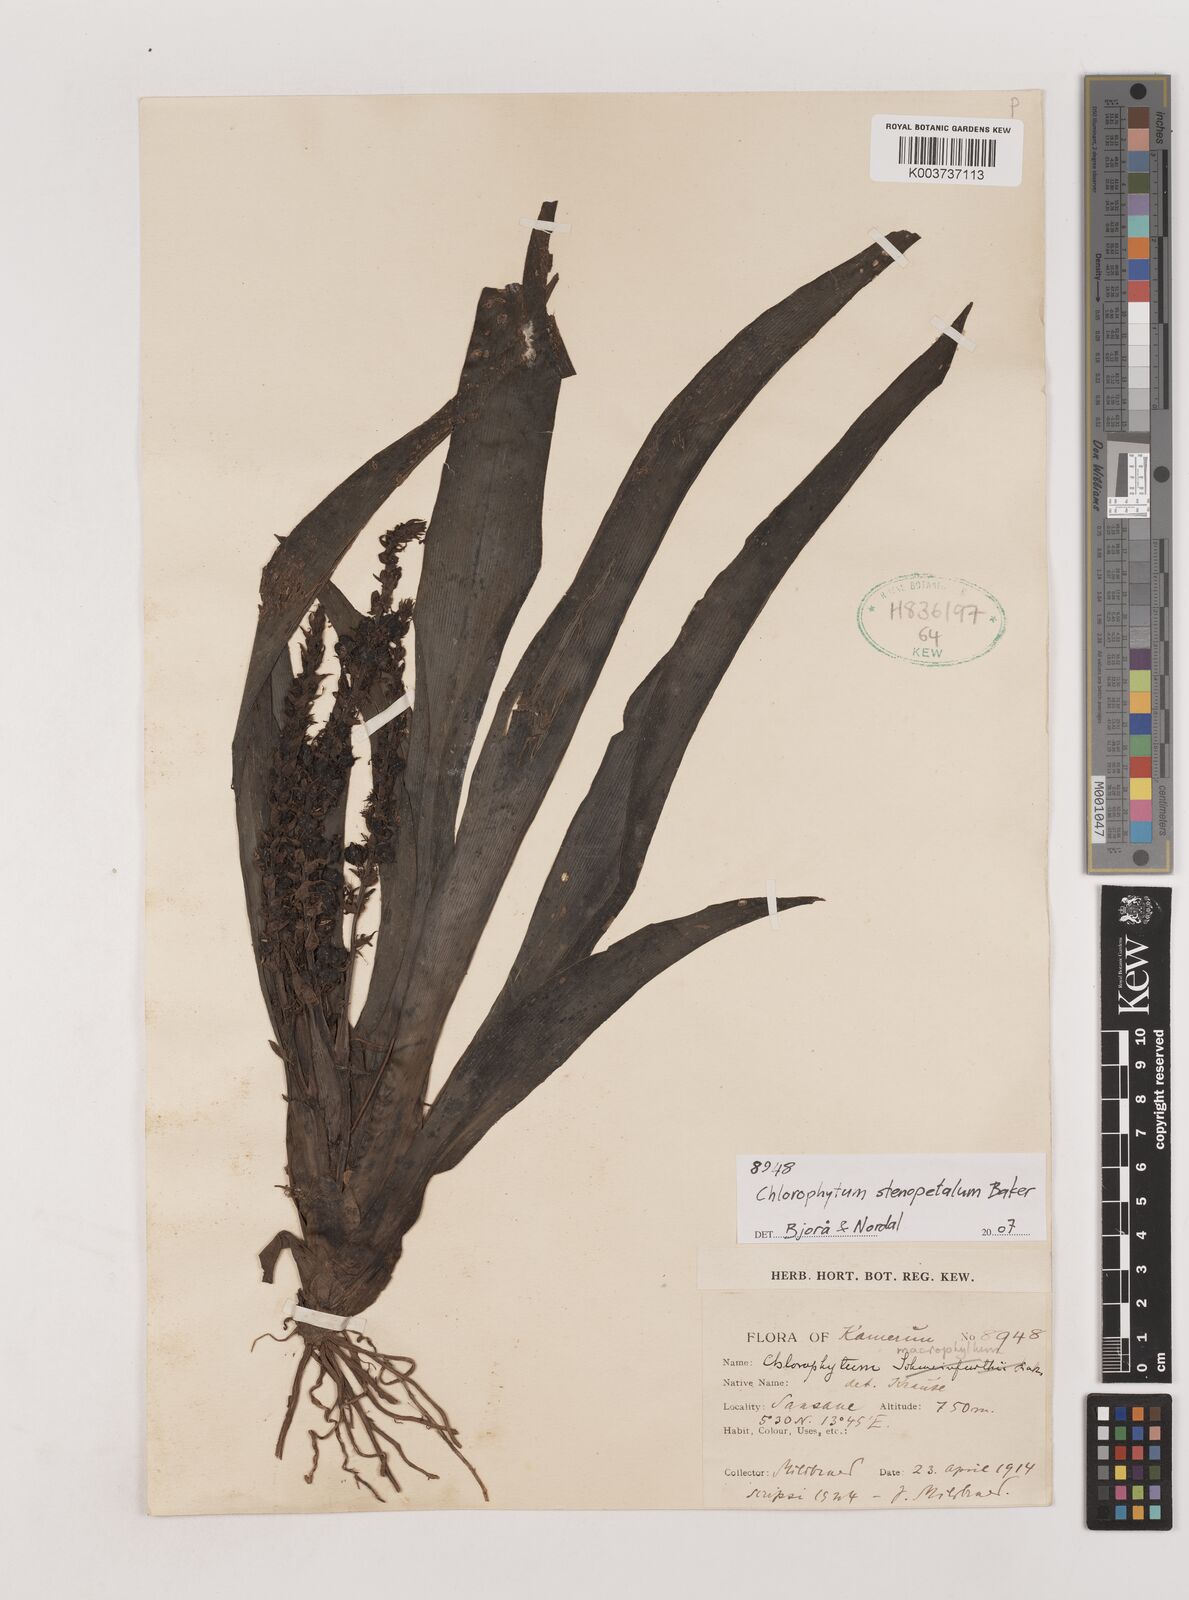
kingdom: Plantae
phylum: Tracheophyta
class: Liliopsida
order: Asparagales
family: Asparagaceae
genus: Chlorophytum
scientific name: Chlorophytum stenopetalum
